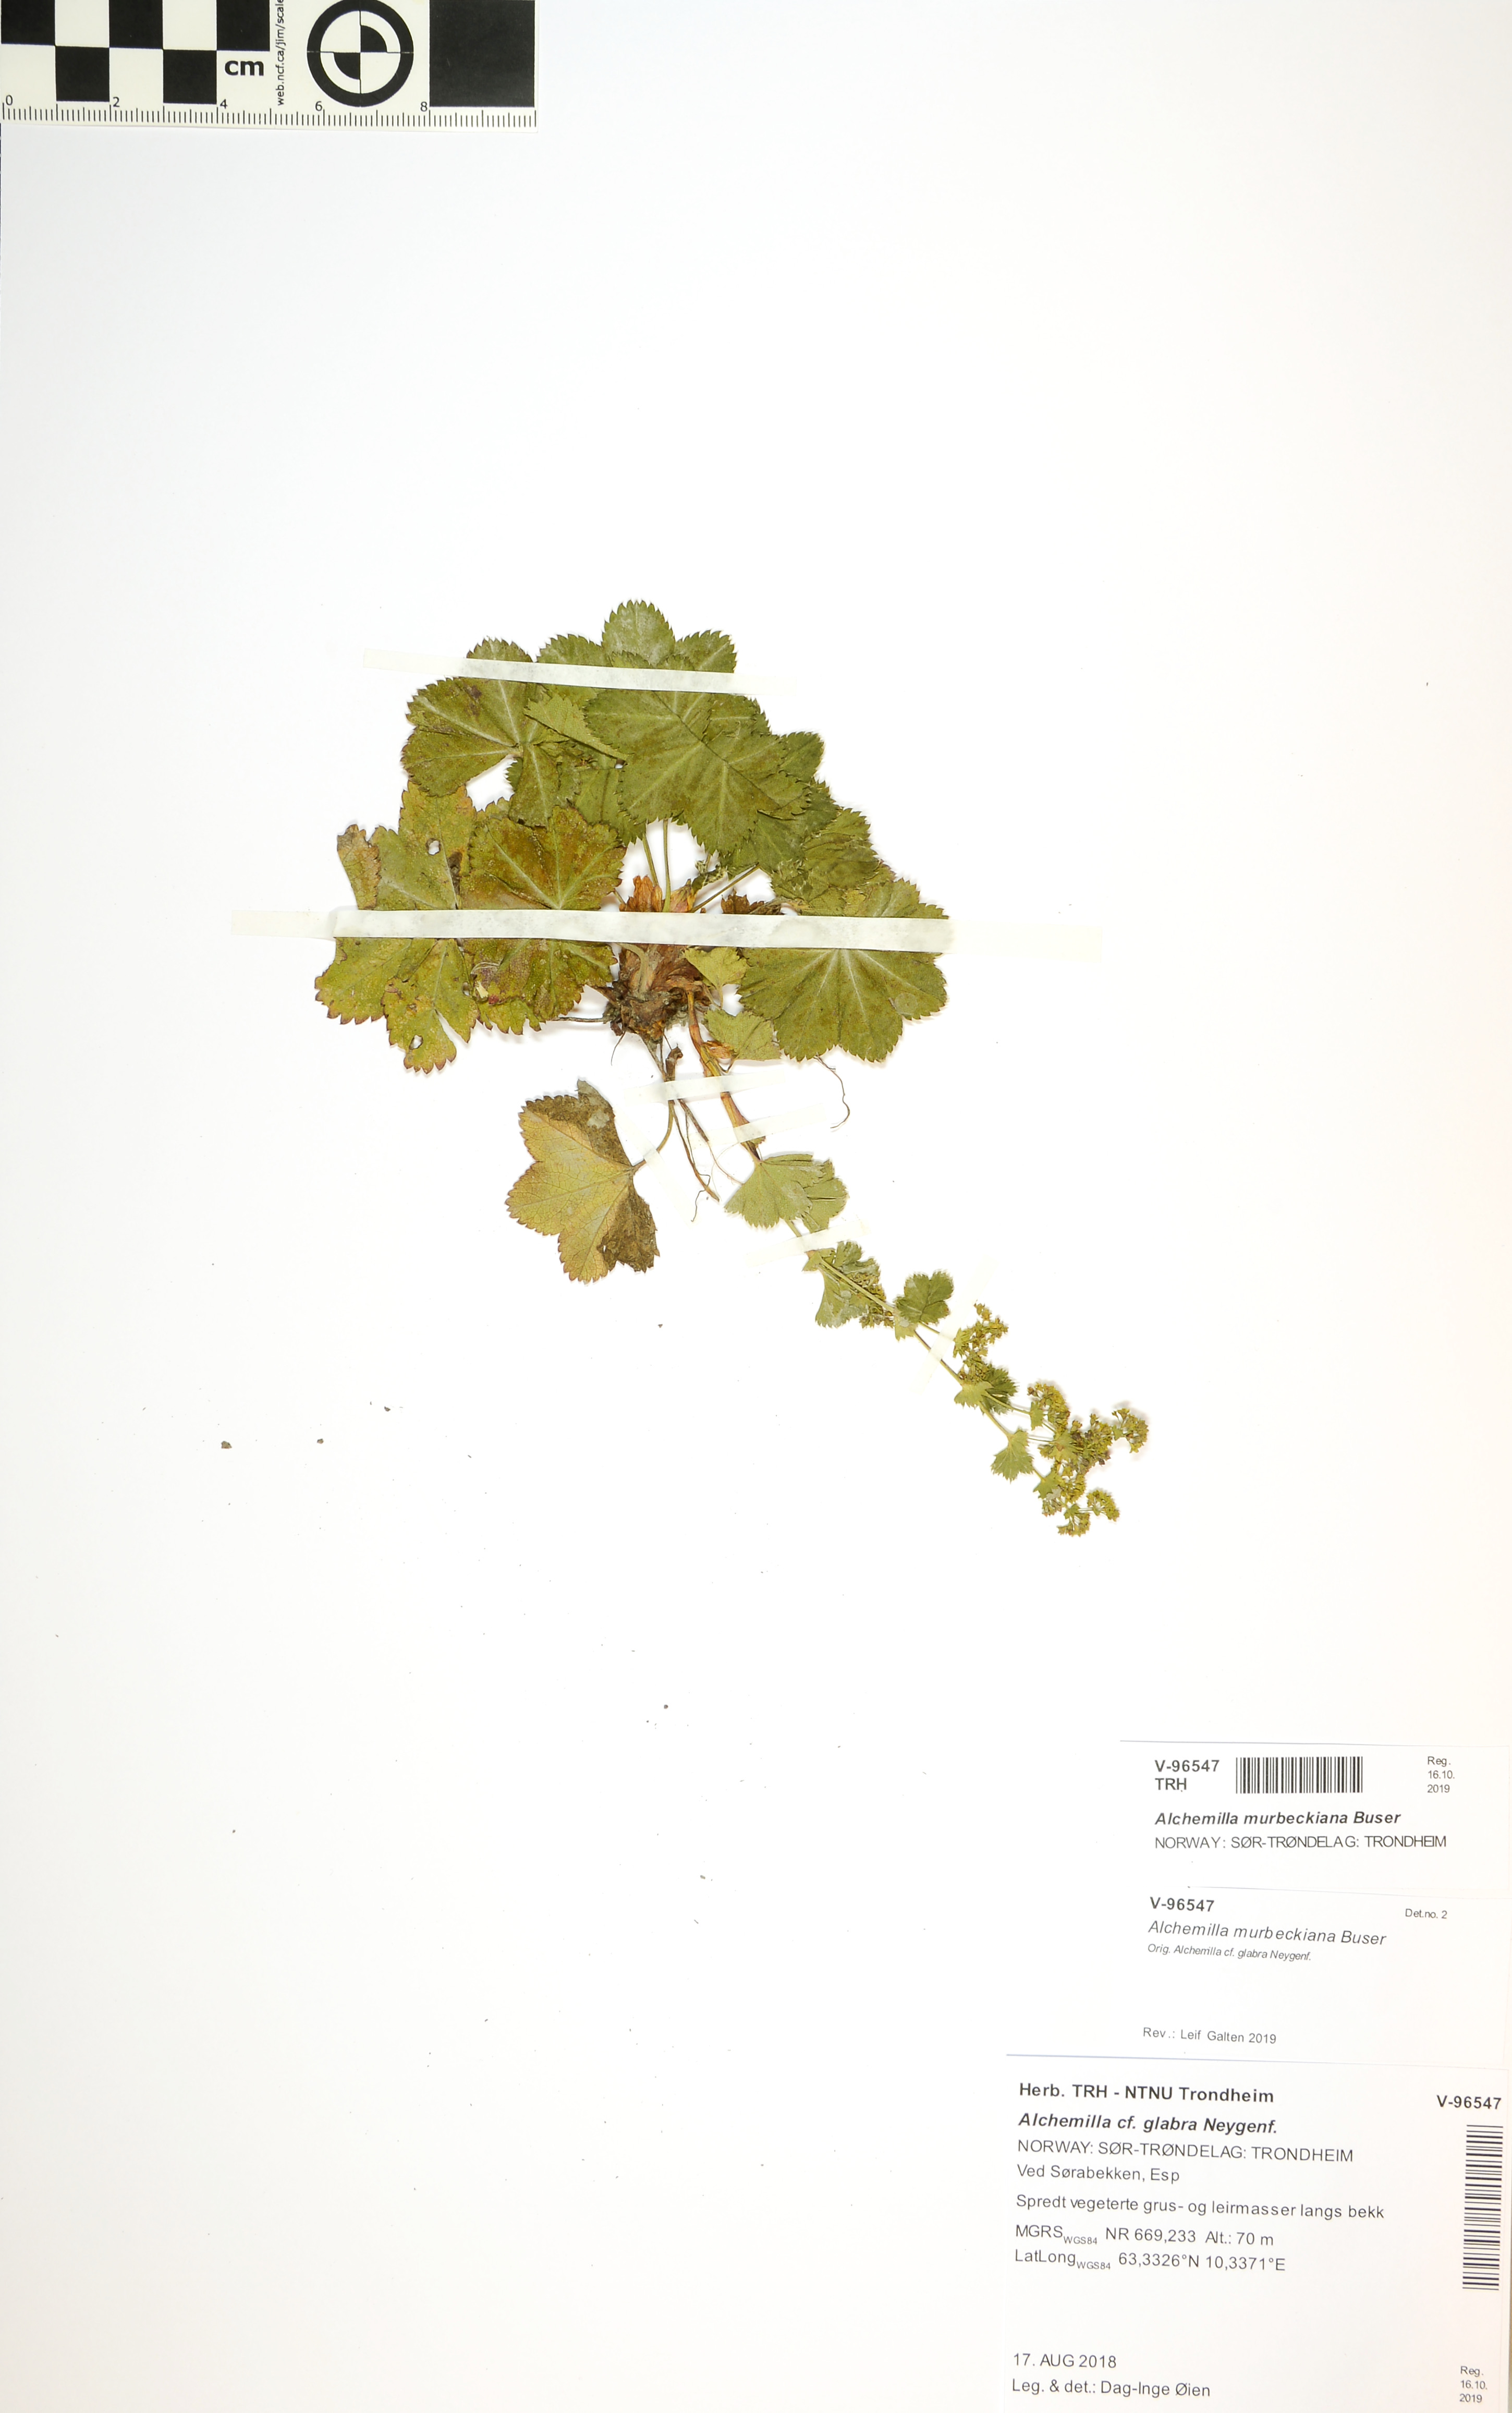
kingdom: Plantae
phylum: Tracheophyta
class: Magnoliopsida
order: Rosales
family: Rosaceae
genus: Alchemilla
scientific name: Alchemilla murbeckiana
